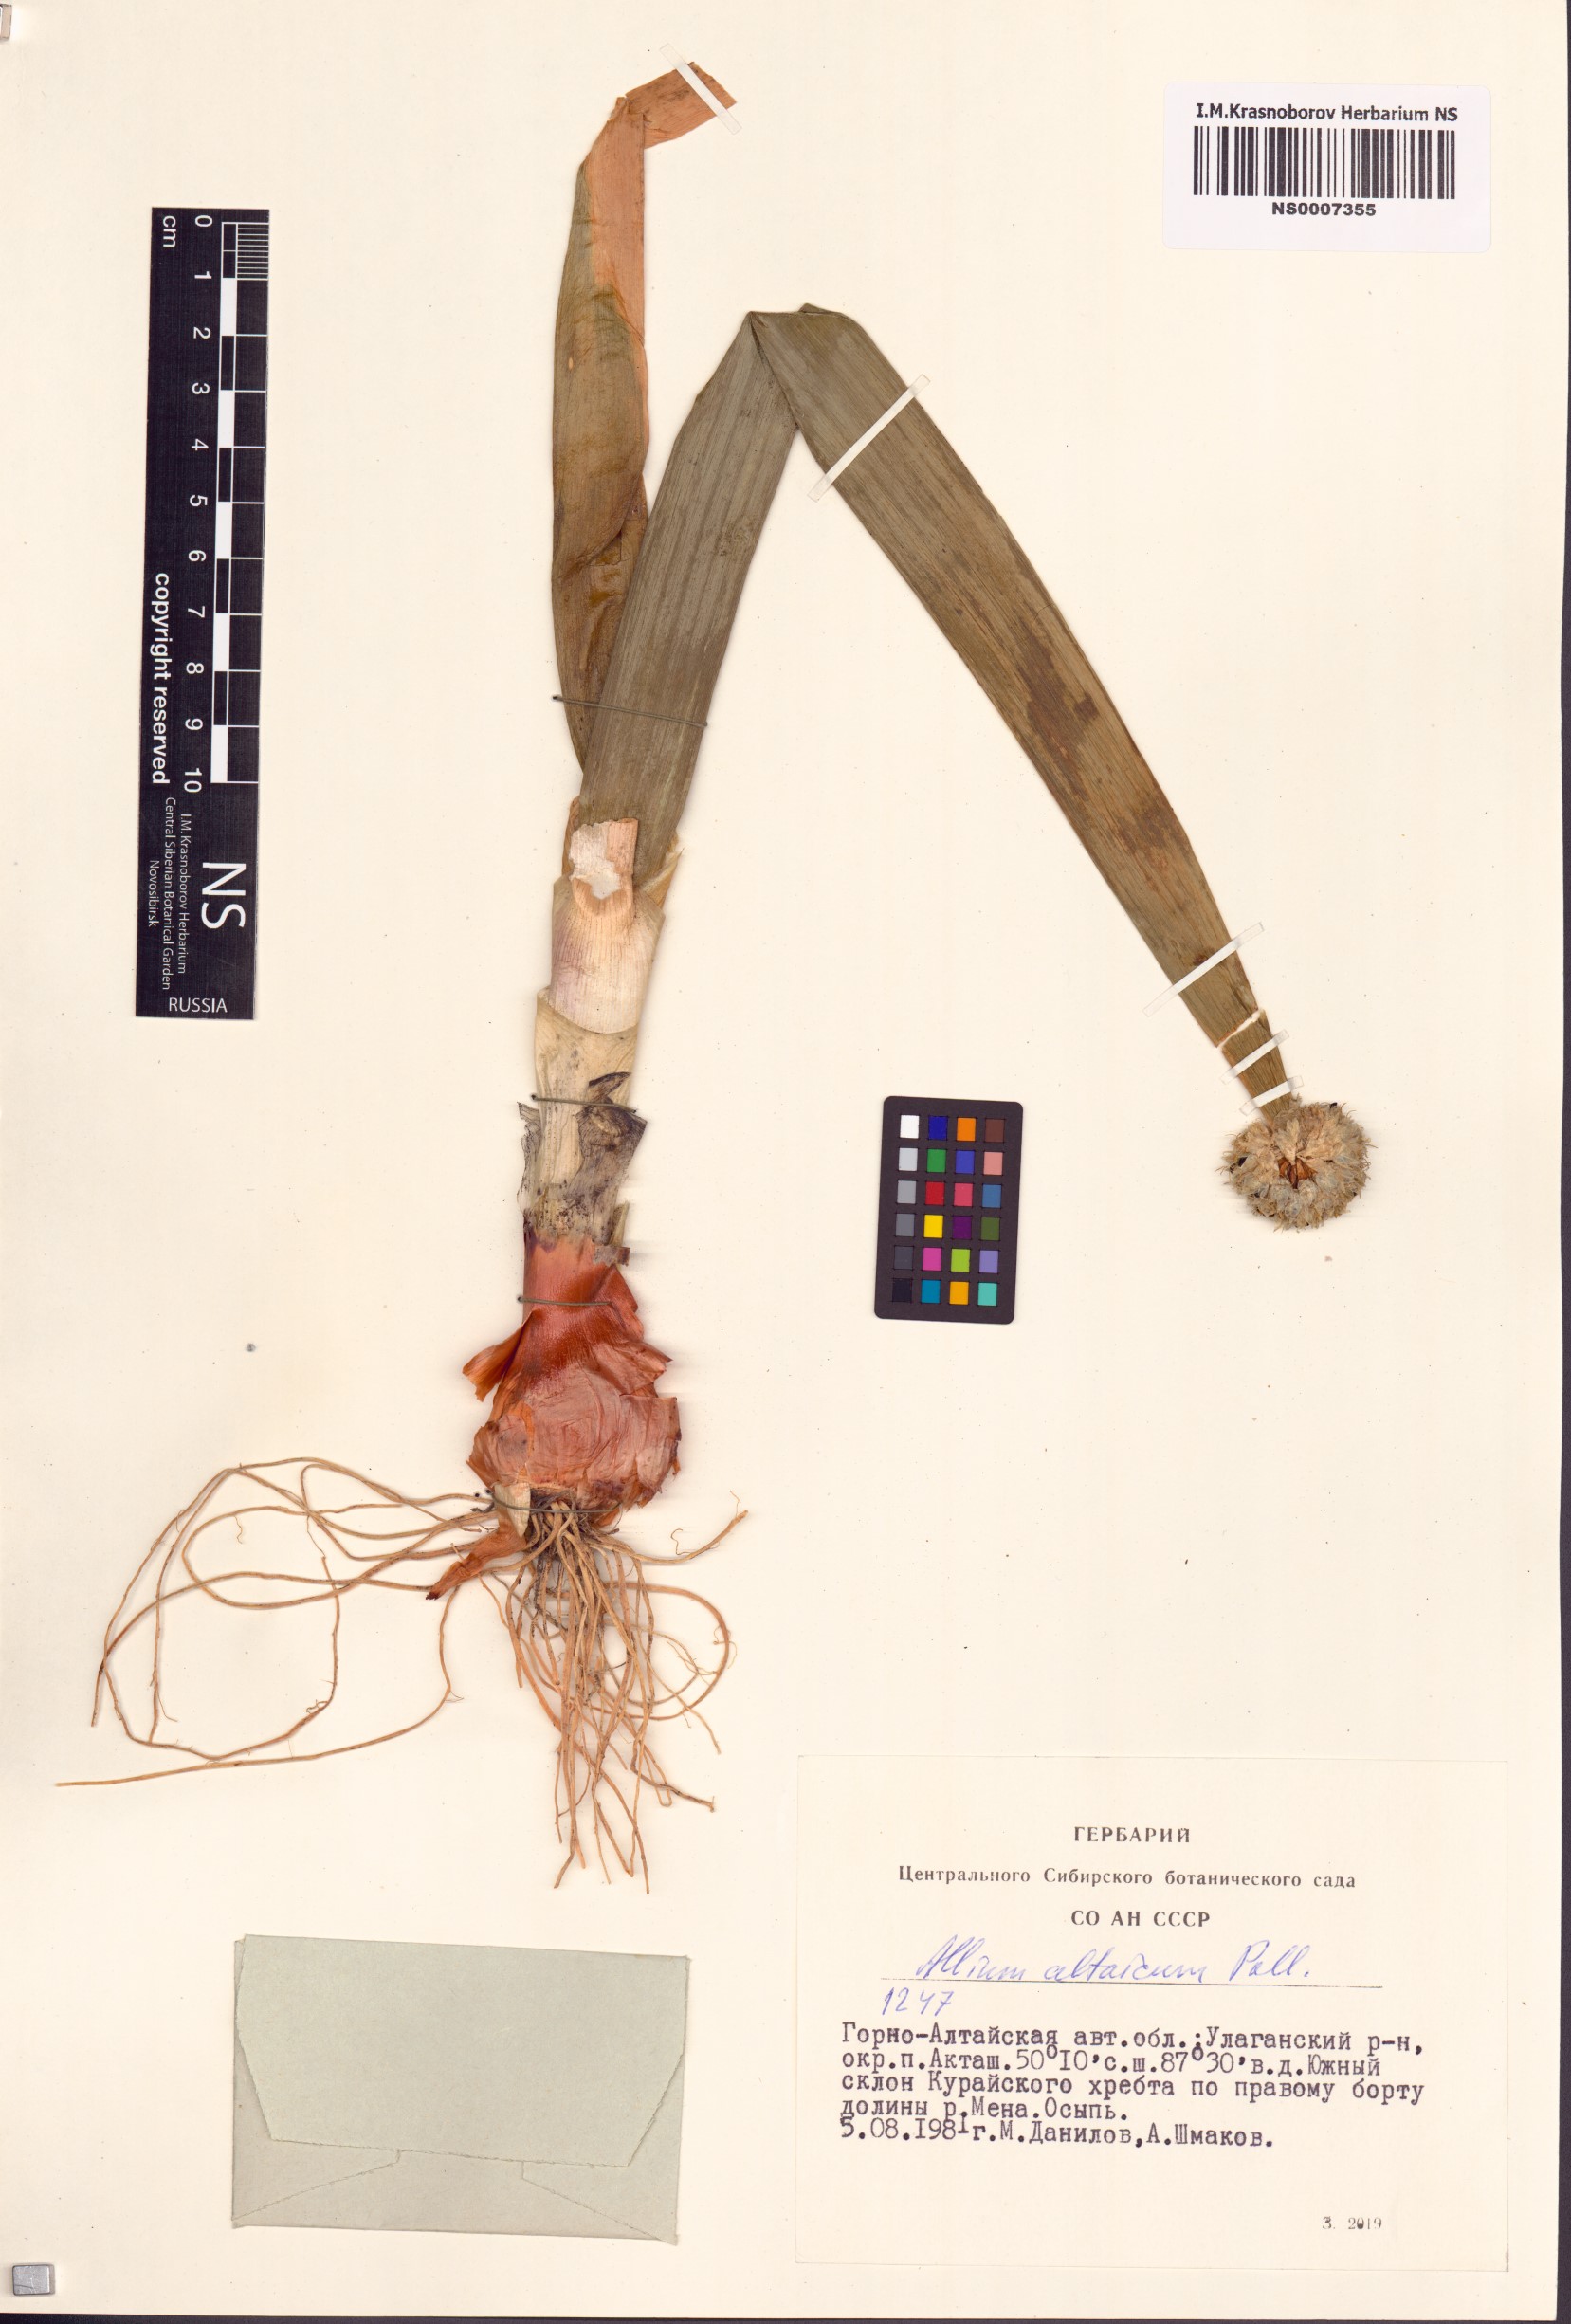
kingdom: Plantae
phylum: Tracheophyta
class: Liliopsida
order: Asparagales
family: Amaryllidaceae
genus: Allium
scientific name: Allium altaicum
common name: Altai onion
